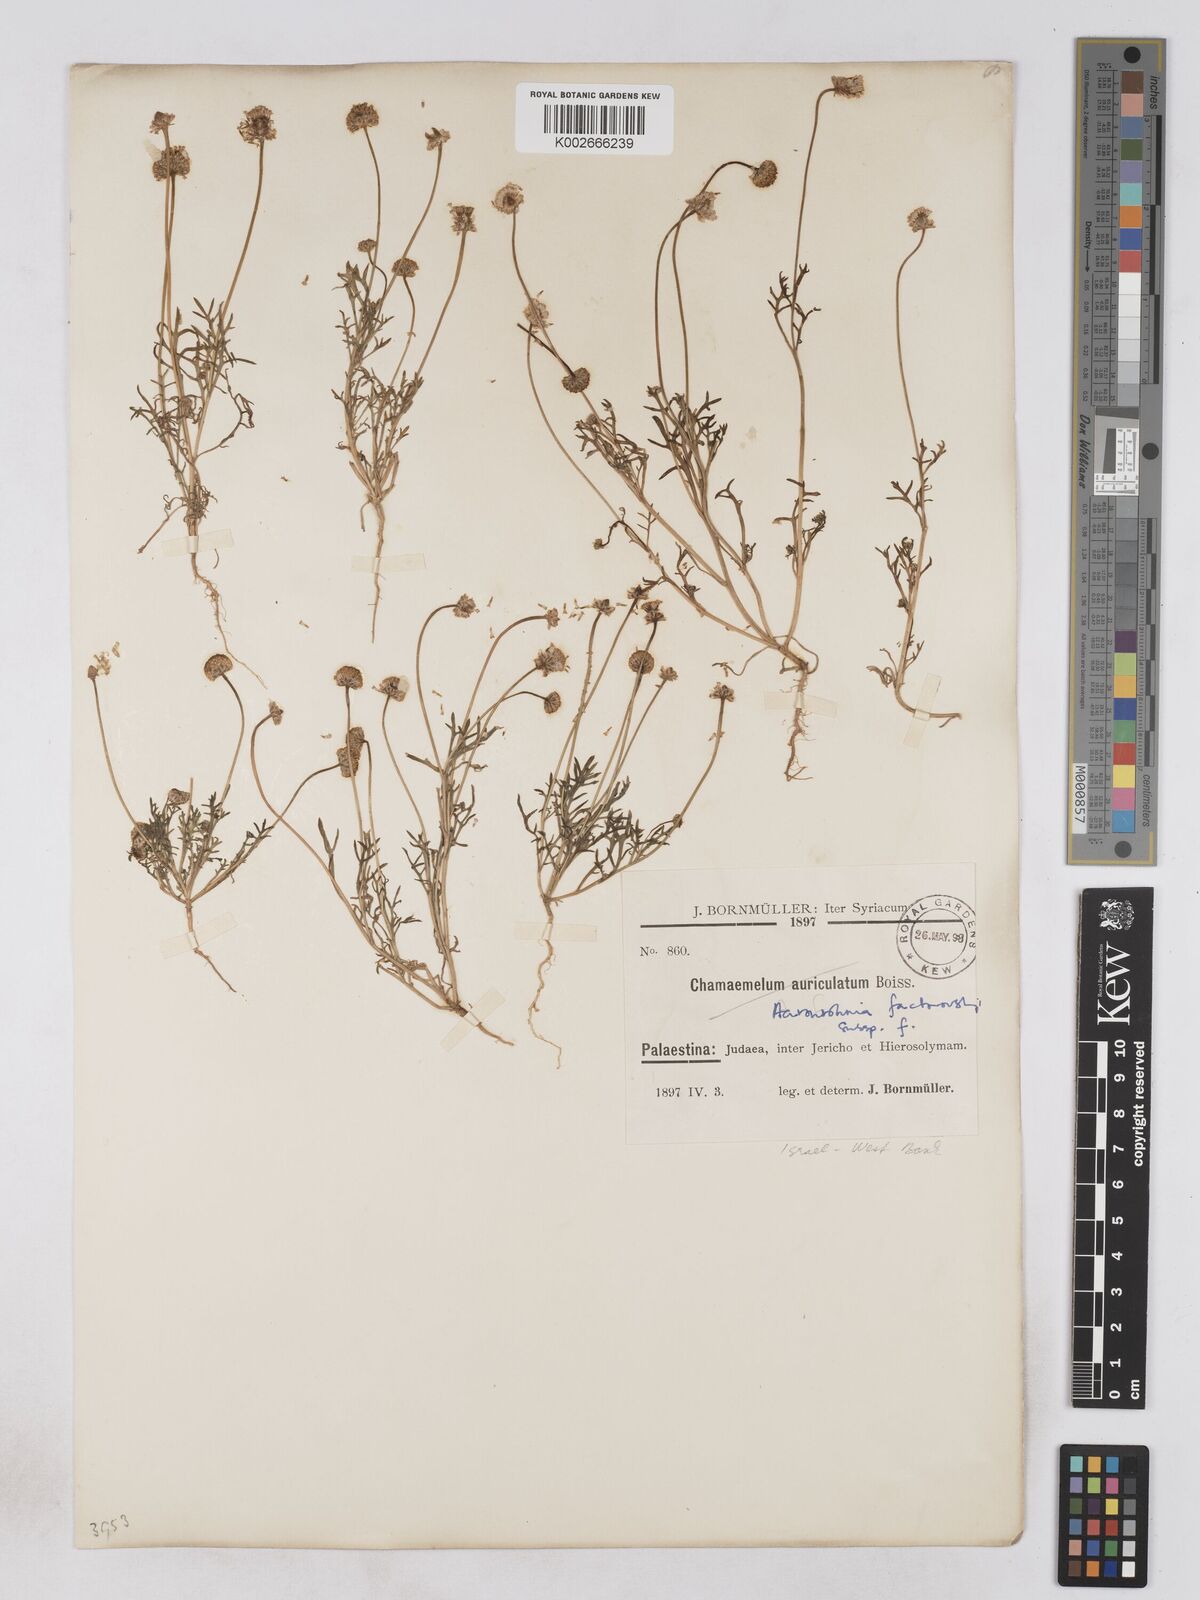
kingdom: Plantae
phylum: Tracheophyta
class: Magnoliopsida
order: Asterales
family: Asteraceae
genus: Otoglyphis
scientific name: Otoglyphis factorovskyi
